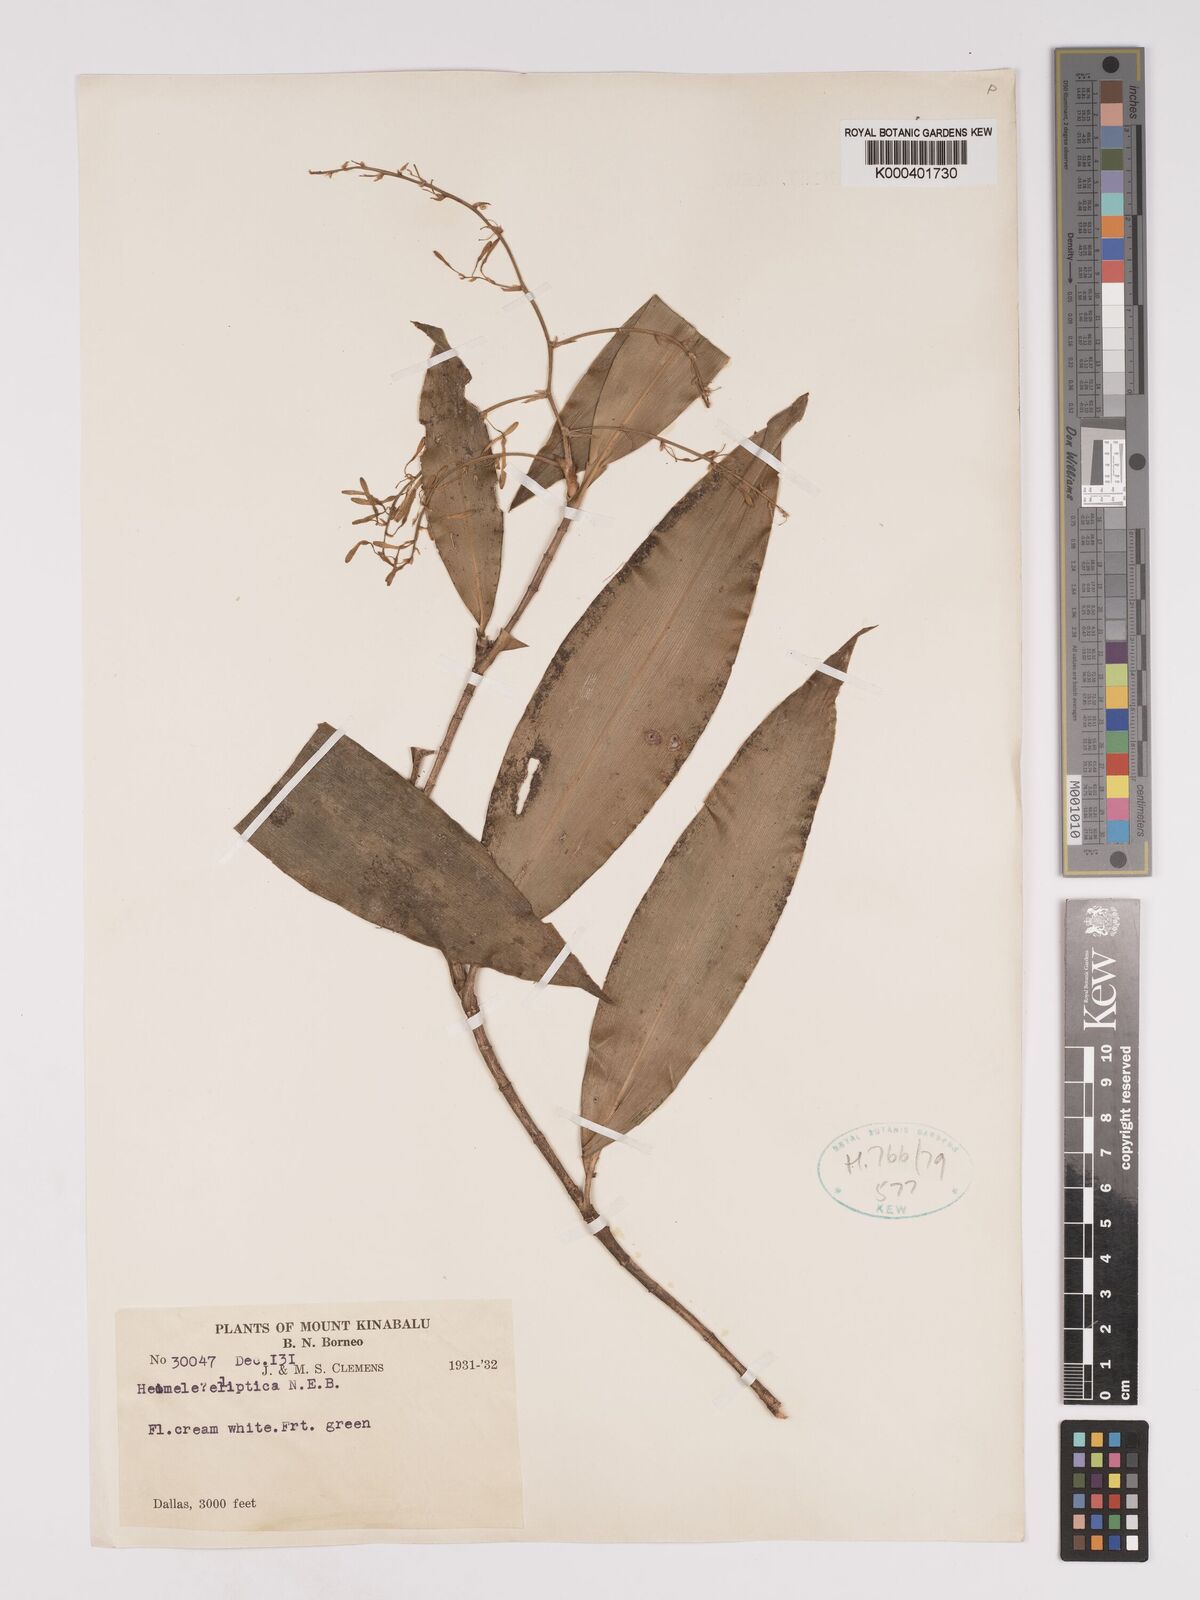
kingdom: Plantae
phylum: Tracheophyta
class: Liliopsida
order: Asparagales
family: Asparagaceae
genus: Dracaena
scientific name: Dracaena elliptica
